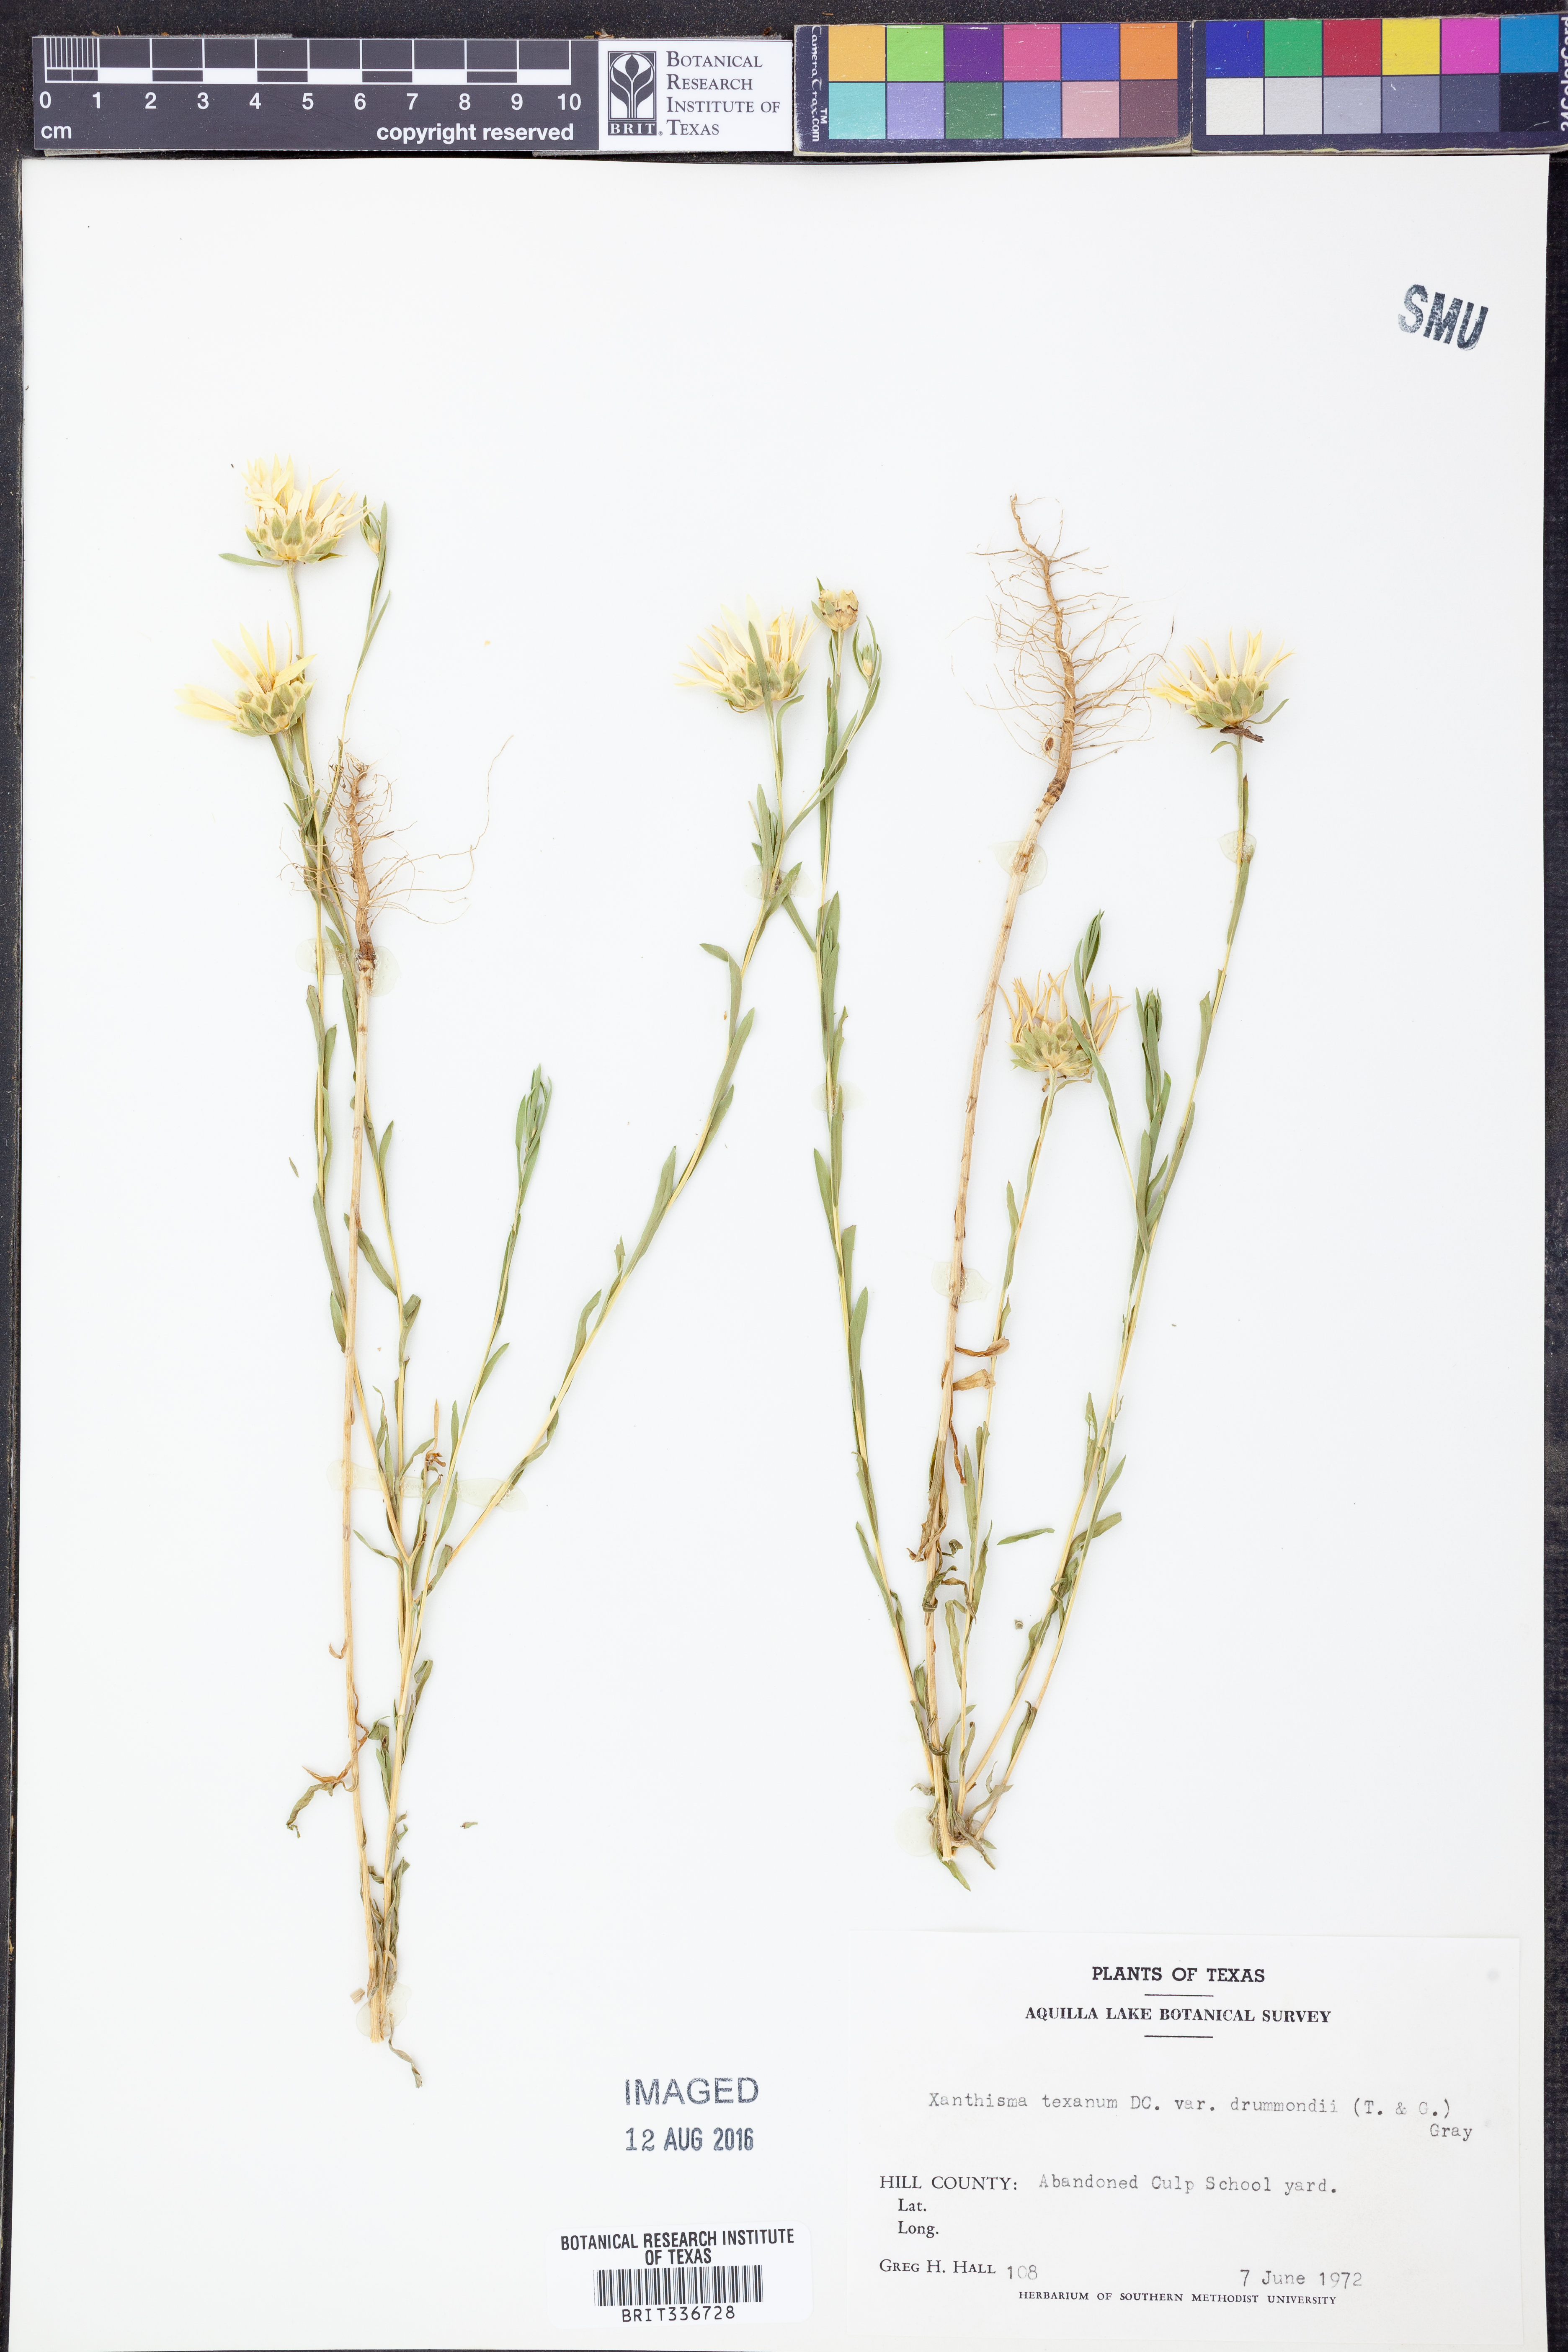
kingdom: Plantae
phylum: Tracheophyta
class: Magnoliopsida
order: Asterales
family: Asteraceae
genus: Xanthisma
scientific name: Xanthisma texanum
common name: Texas sleepy daisy
